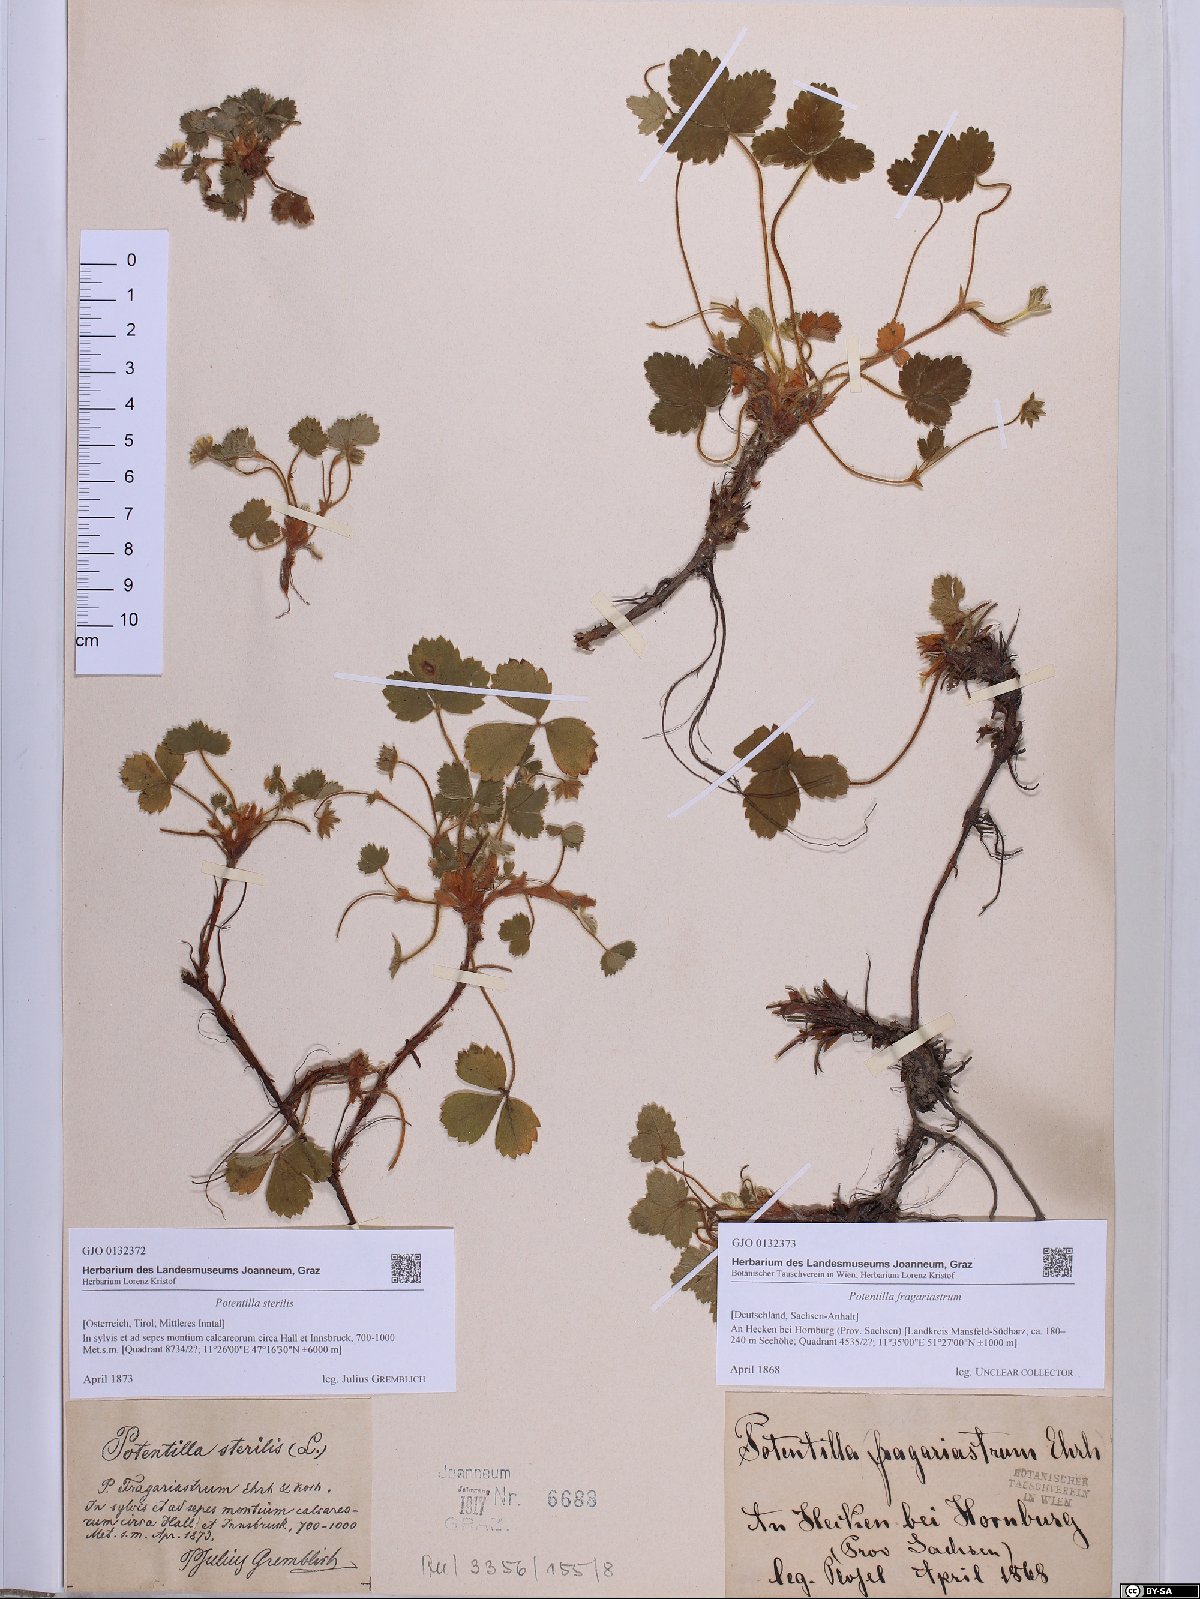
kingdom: Plantae
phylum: Tracheophyta
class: Magnoliopsida
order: Rosales
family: Rosaceae
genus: Potentilla
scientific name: Potentilla sterilis
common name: Barren strawberry
